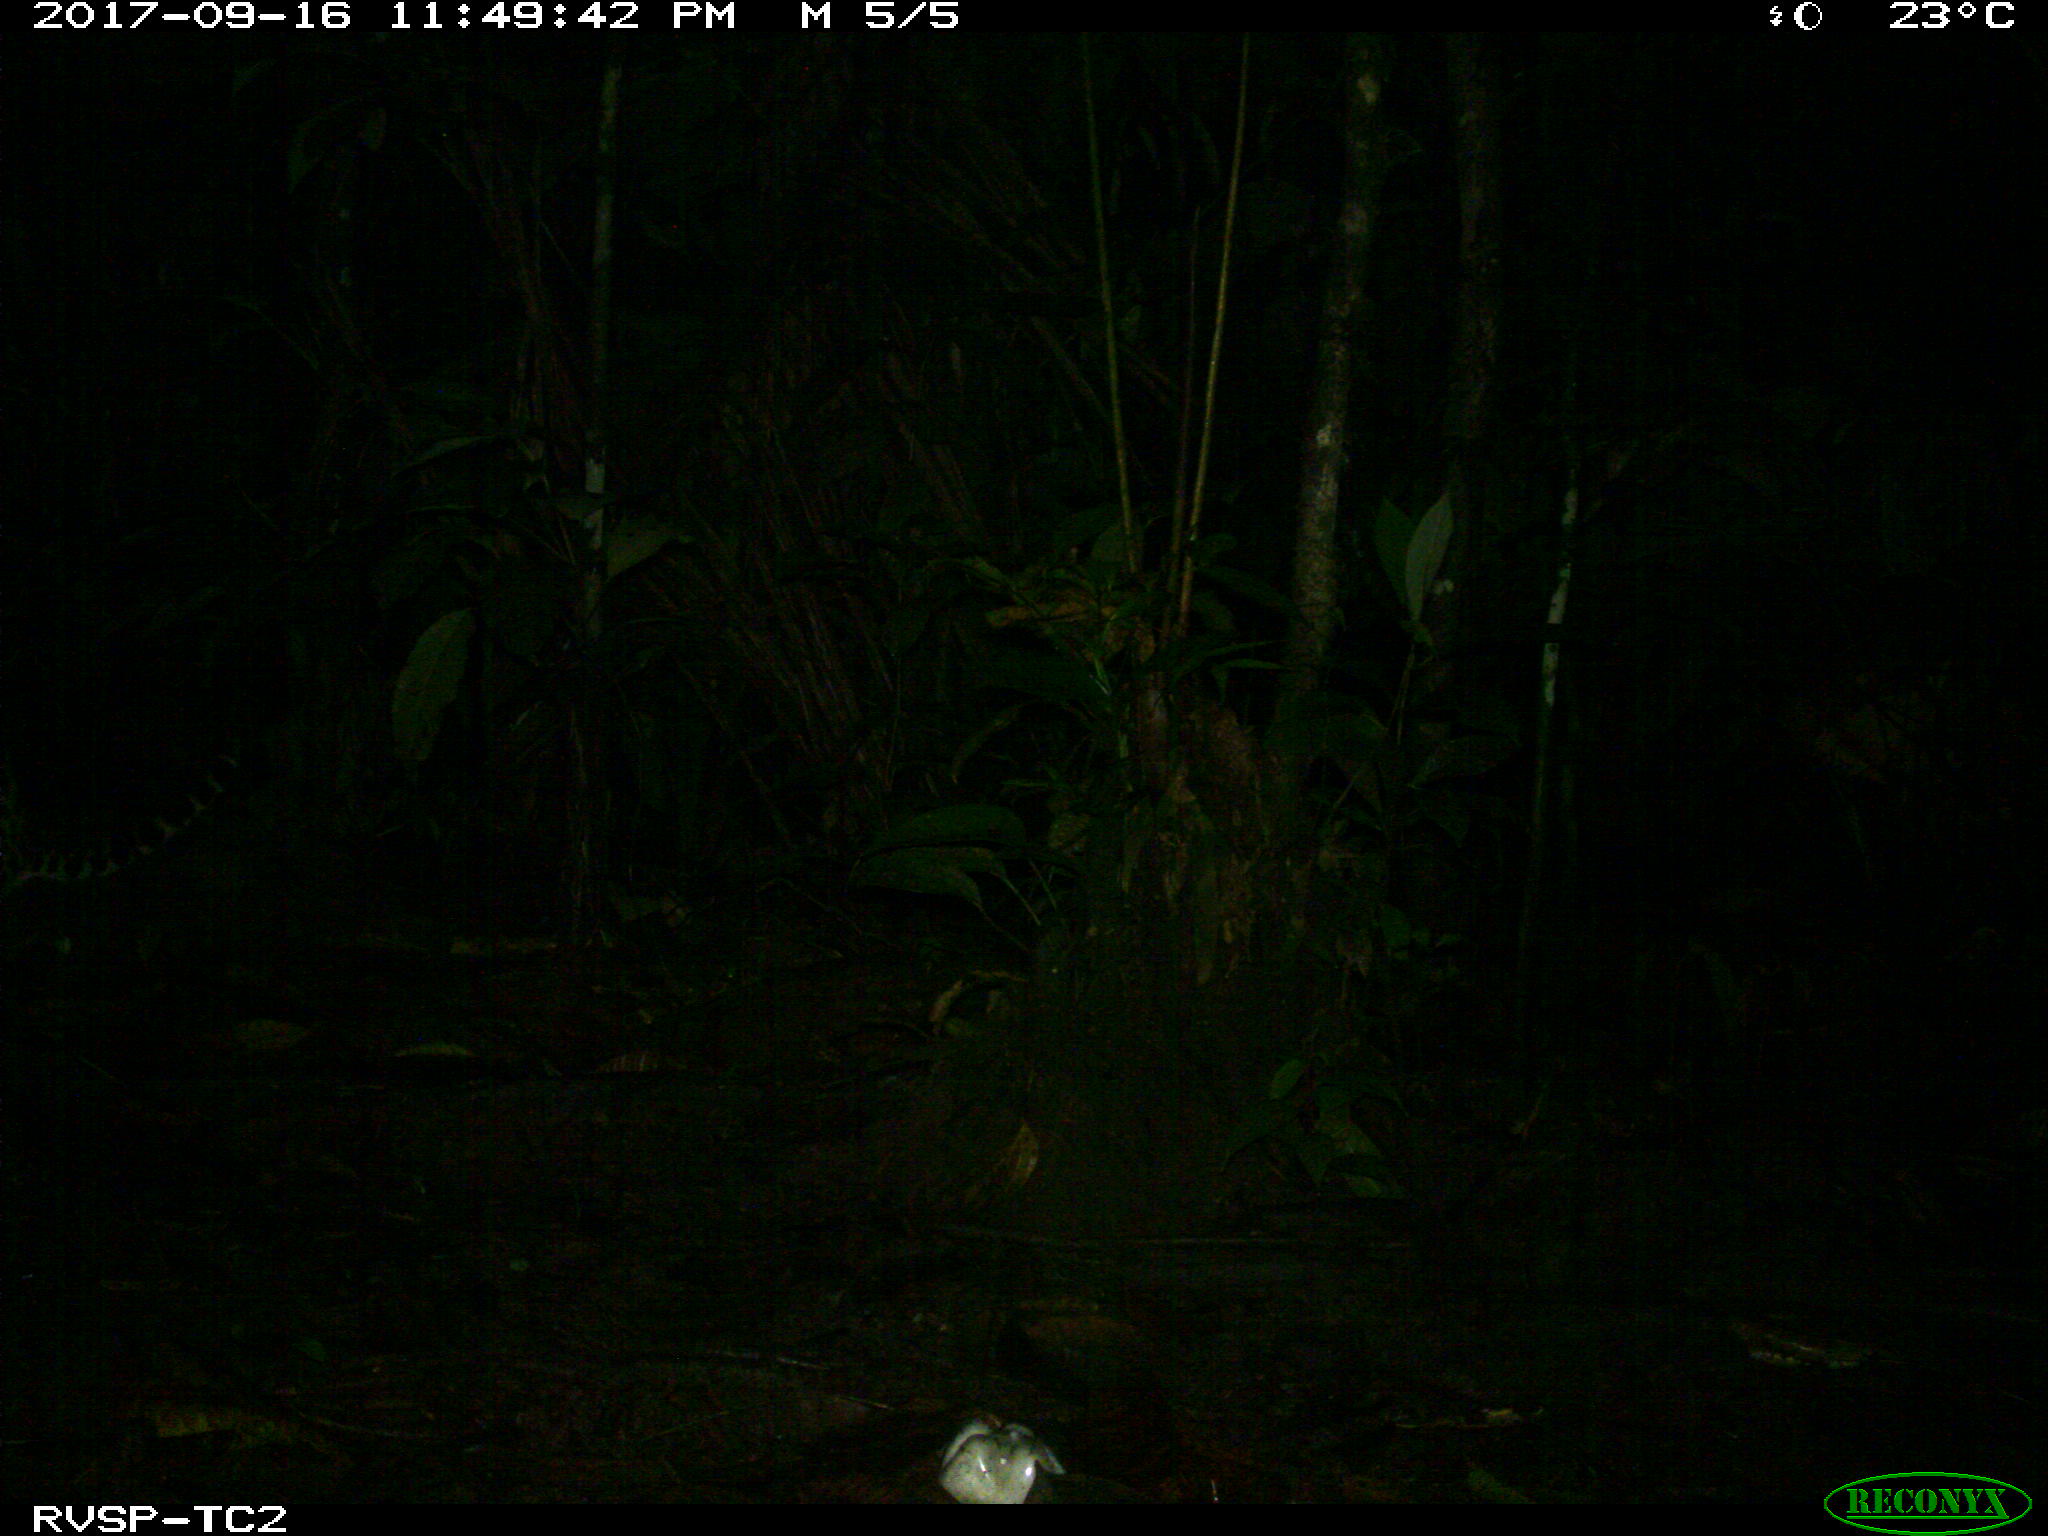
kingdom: Animalia
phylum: Chordata
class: Mammalia
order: Carnivora
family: Felidae
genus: Leopardus
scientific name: Leopardus pardalis
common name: Ocelot
